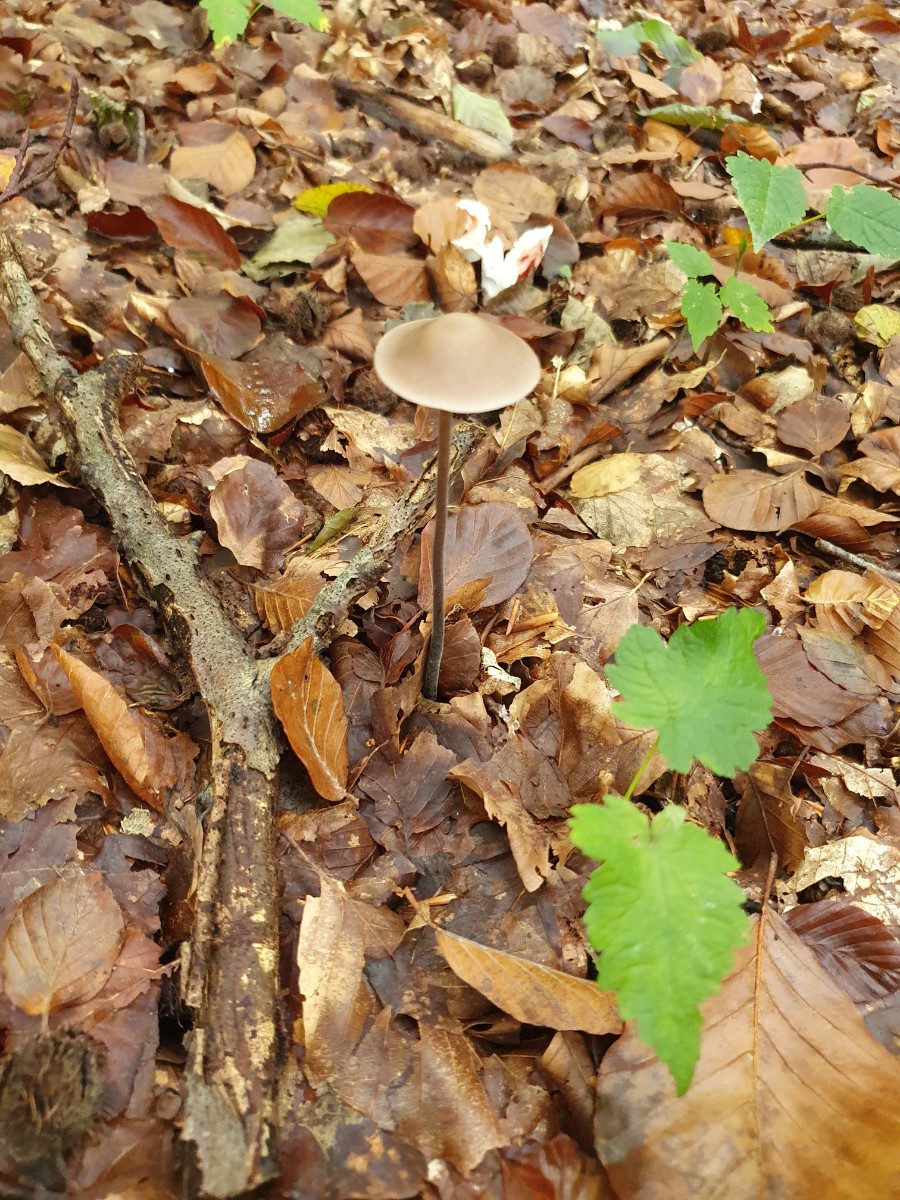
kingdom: Fungi
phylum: Basidiomycota
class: Agaricomycetes
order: Agaricales
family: Omphalotaceae
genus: Mycetinis
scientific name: Mycetinis alliaceus
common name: stor løghat
